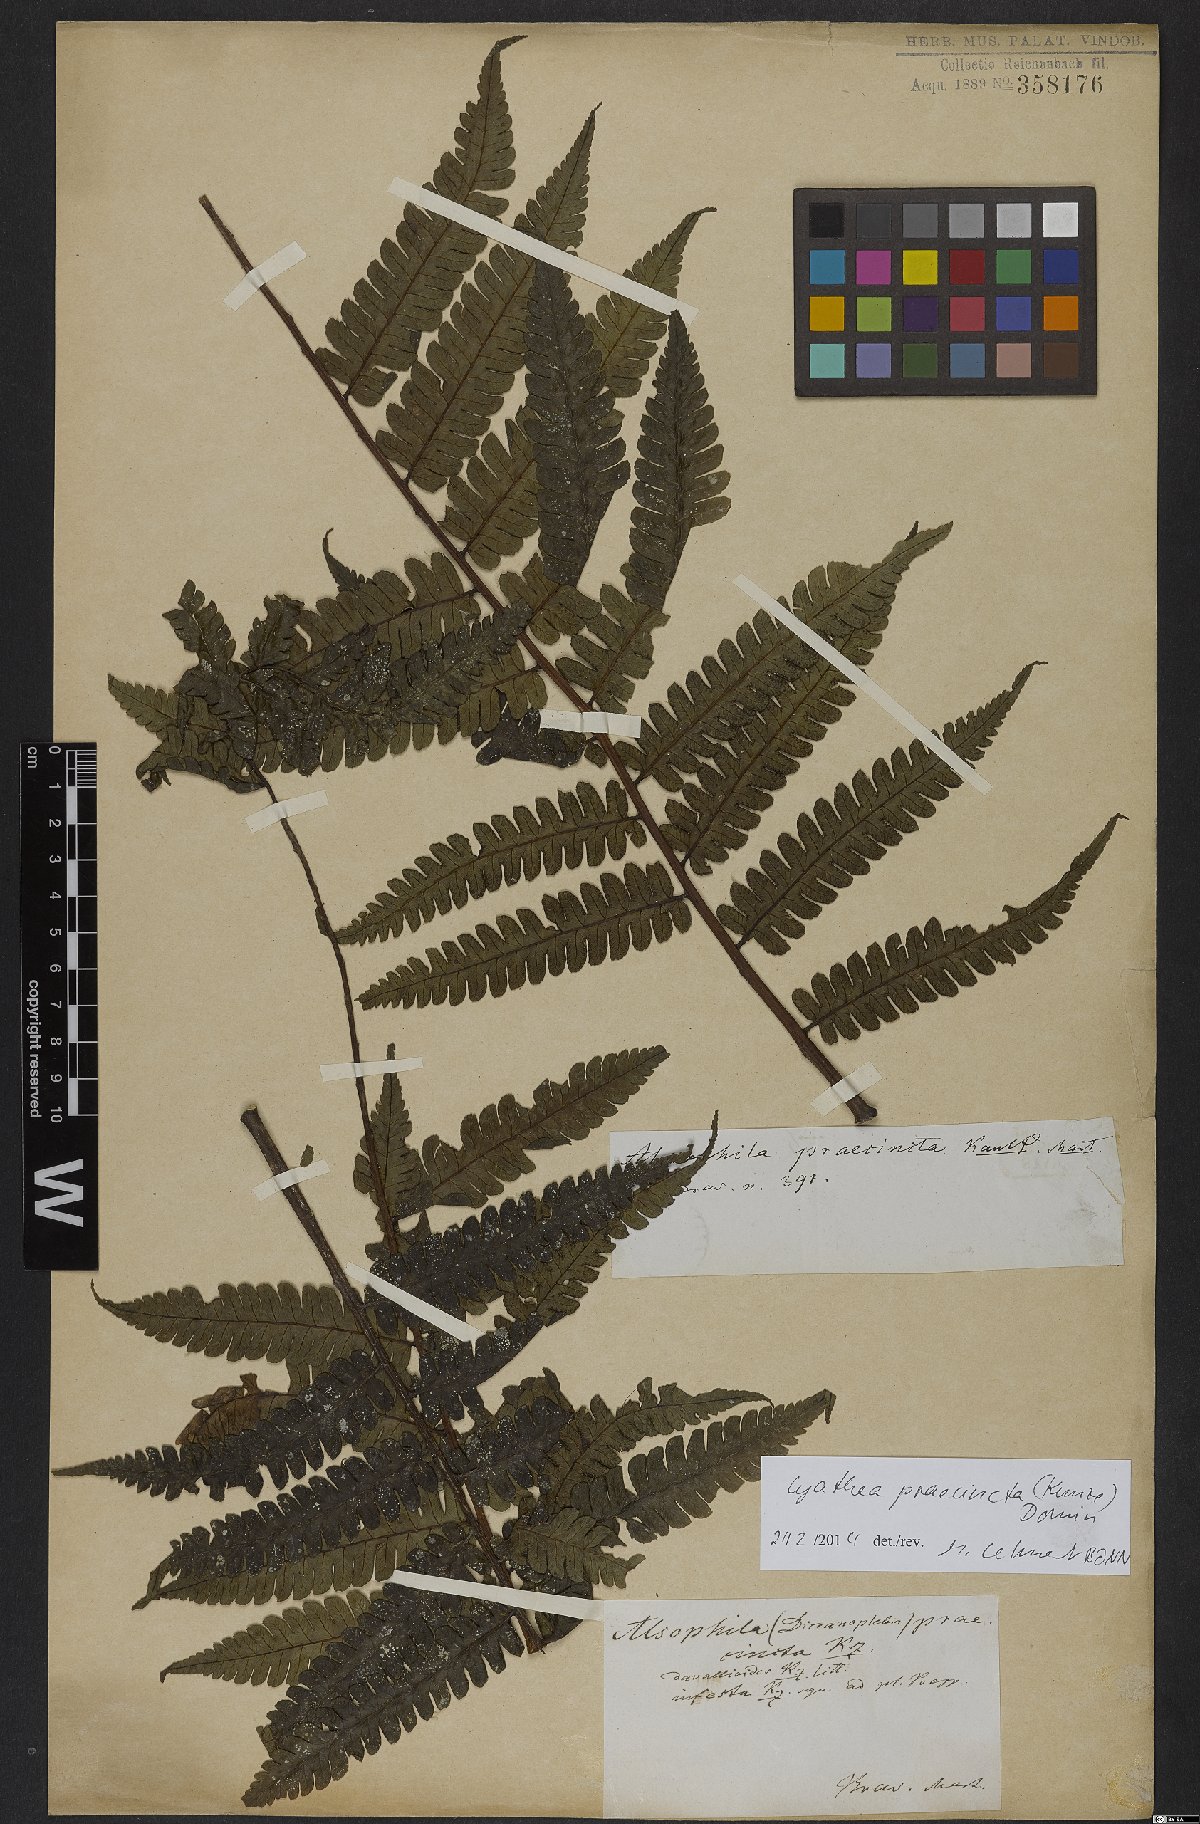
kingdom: Plantae
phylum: Tracheophyta
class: Polypodiopsida
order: Cyatheales
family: Cyatheaceae
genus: Cyathea
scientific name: Cyathea praecincta
